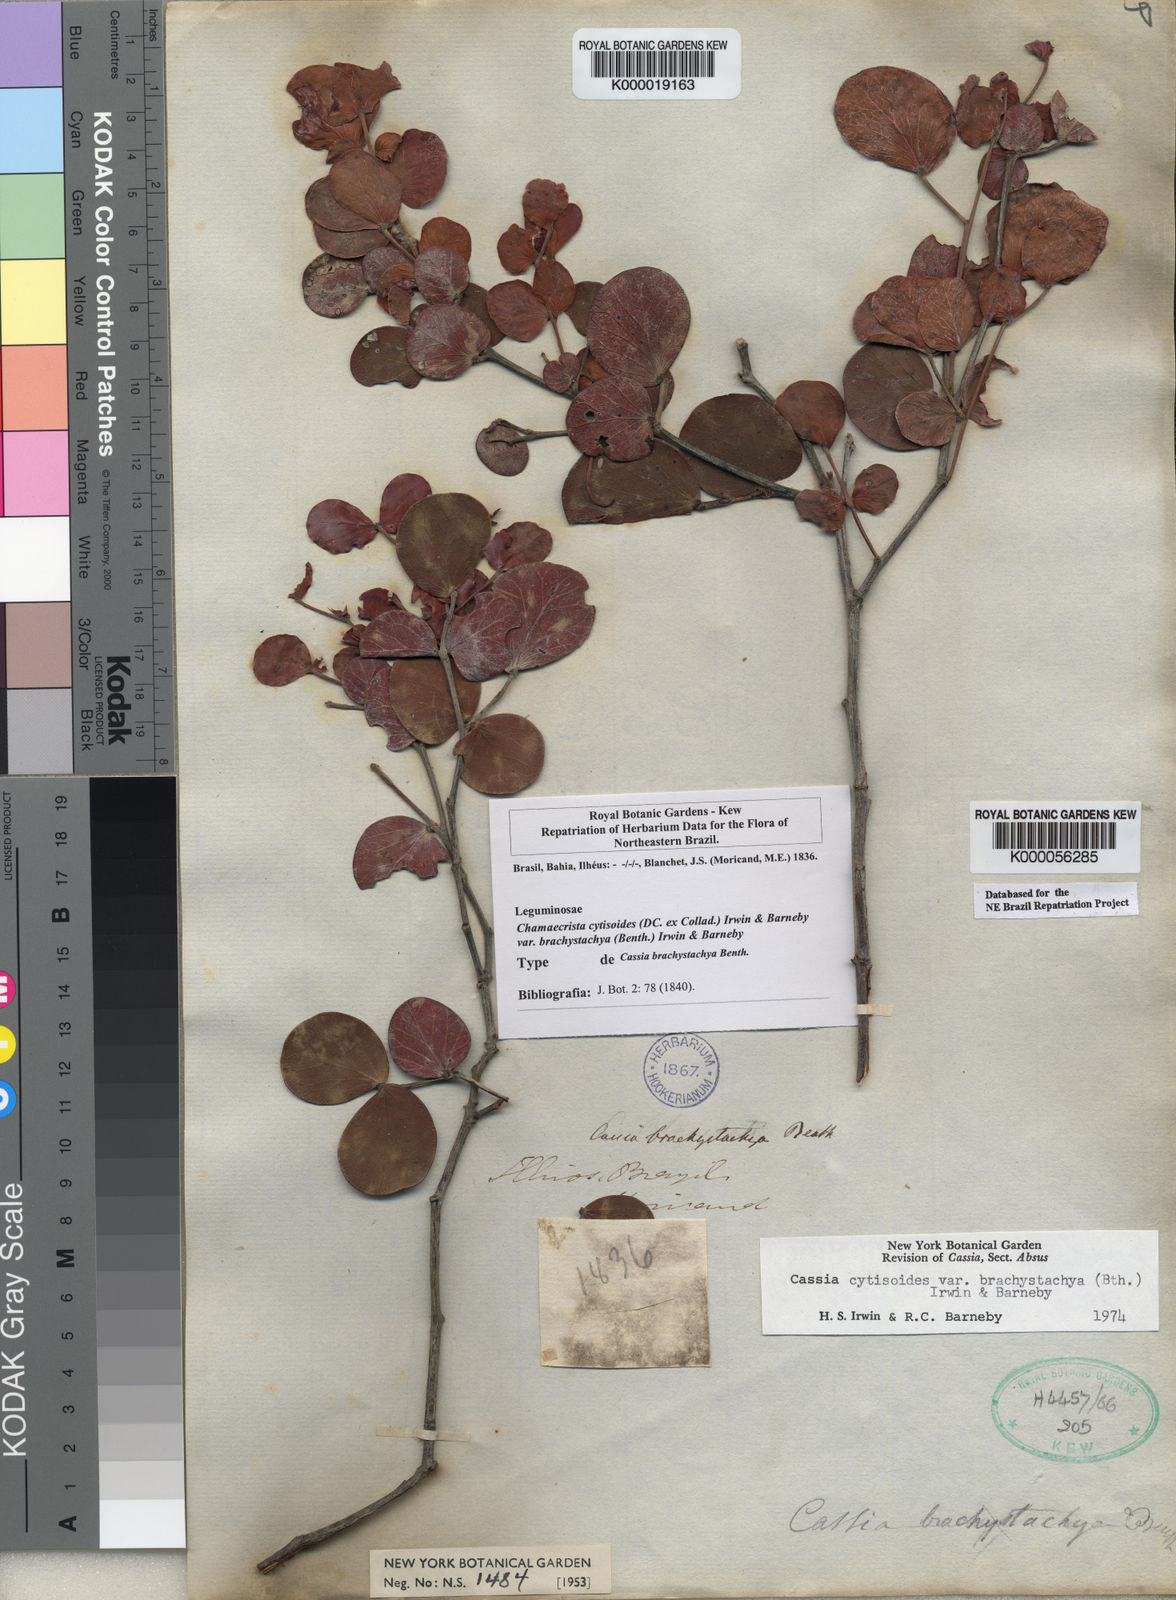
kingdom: Plantae
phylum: Tracheophyta
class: Magnoliopsida
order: Fabales
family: Fabaceae
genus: Chamaecrista
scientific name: Chamaecrista cytisoides
